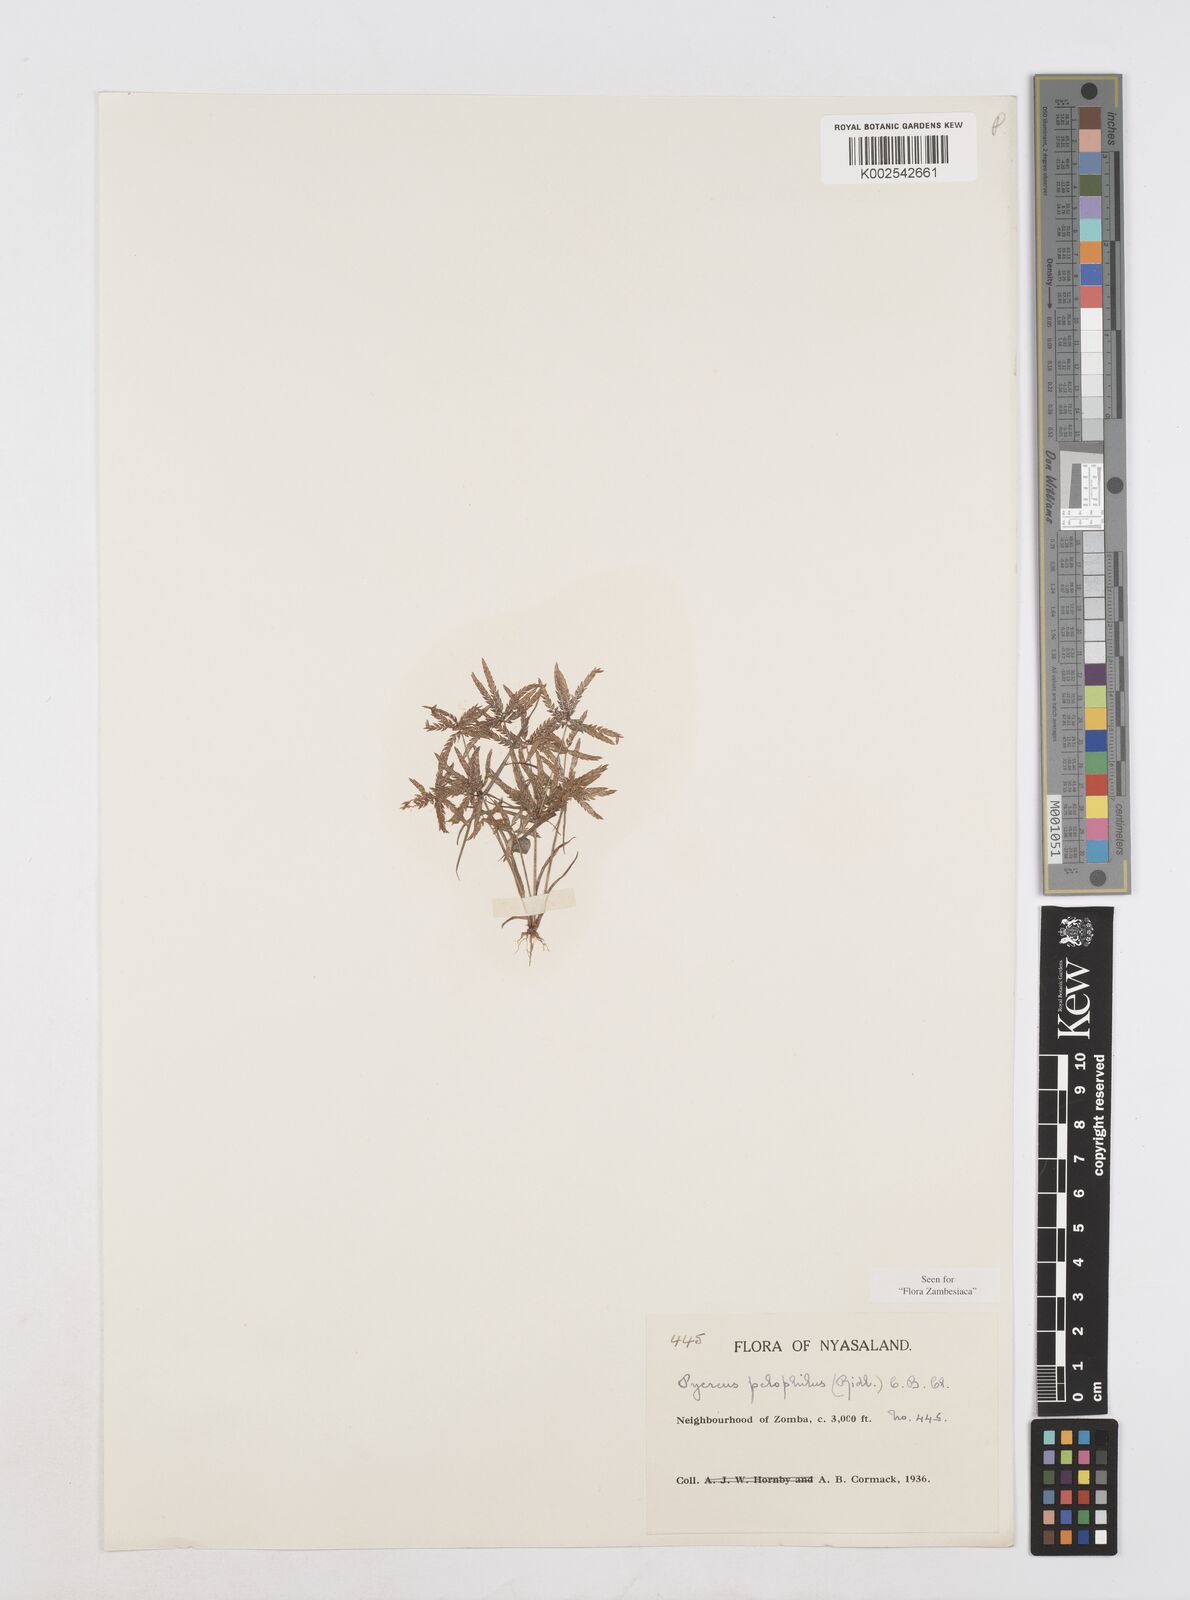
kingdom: Plantae
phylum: Tracheophyta
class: Liliopsida
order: Poales
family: Cyperaceae
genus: Cyperus
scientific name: Cyperus pelophilus
